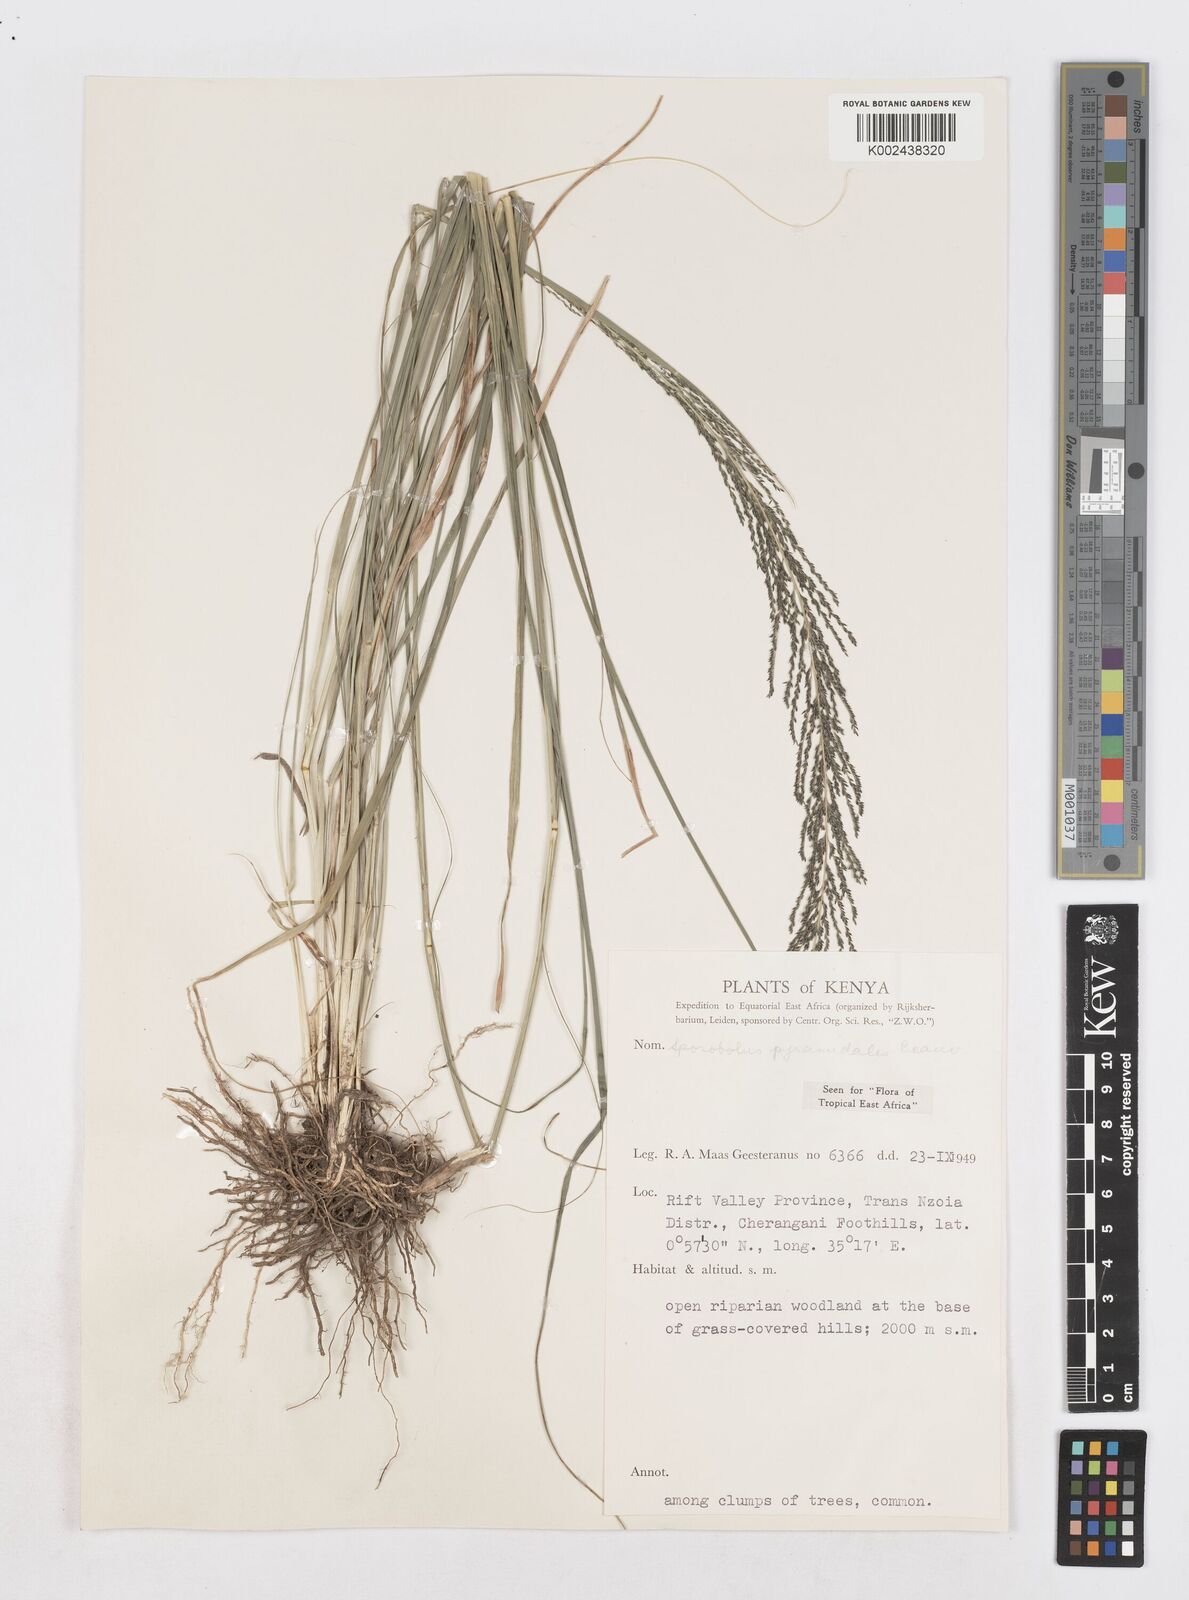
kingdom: Plantae
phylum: Tracheophyta
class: Liliopsida
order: Poales
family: Poaceae
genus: Sporobolus
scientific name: Sporobolus pyramidalis
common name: West indian dropseed
